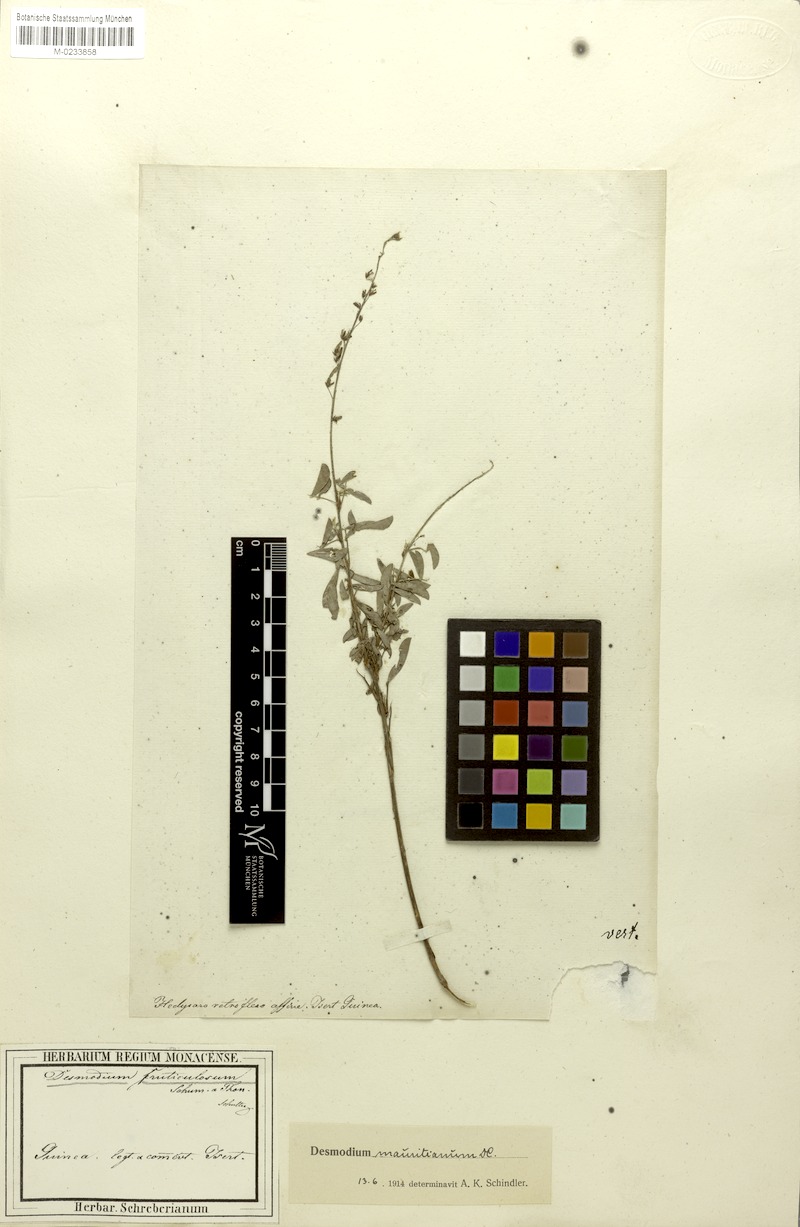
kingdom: Plantae
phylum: Tracheophyta
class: Magnoliopsida
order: Fabales
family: Fabaceae
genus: Grona
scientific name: Grona ramosissima
